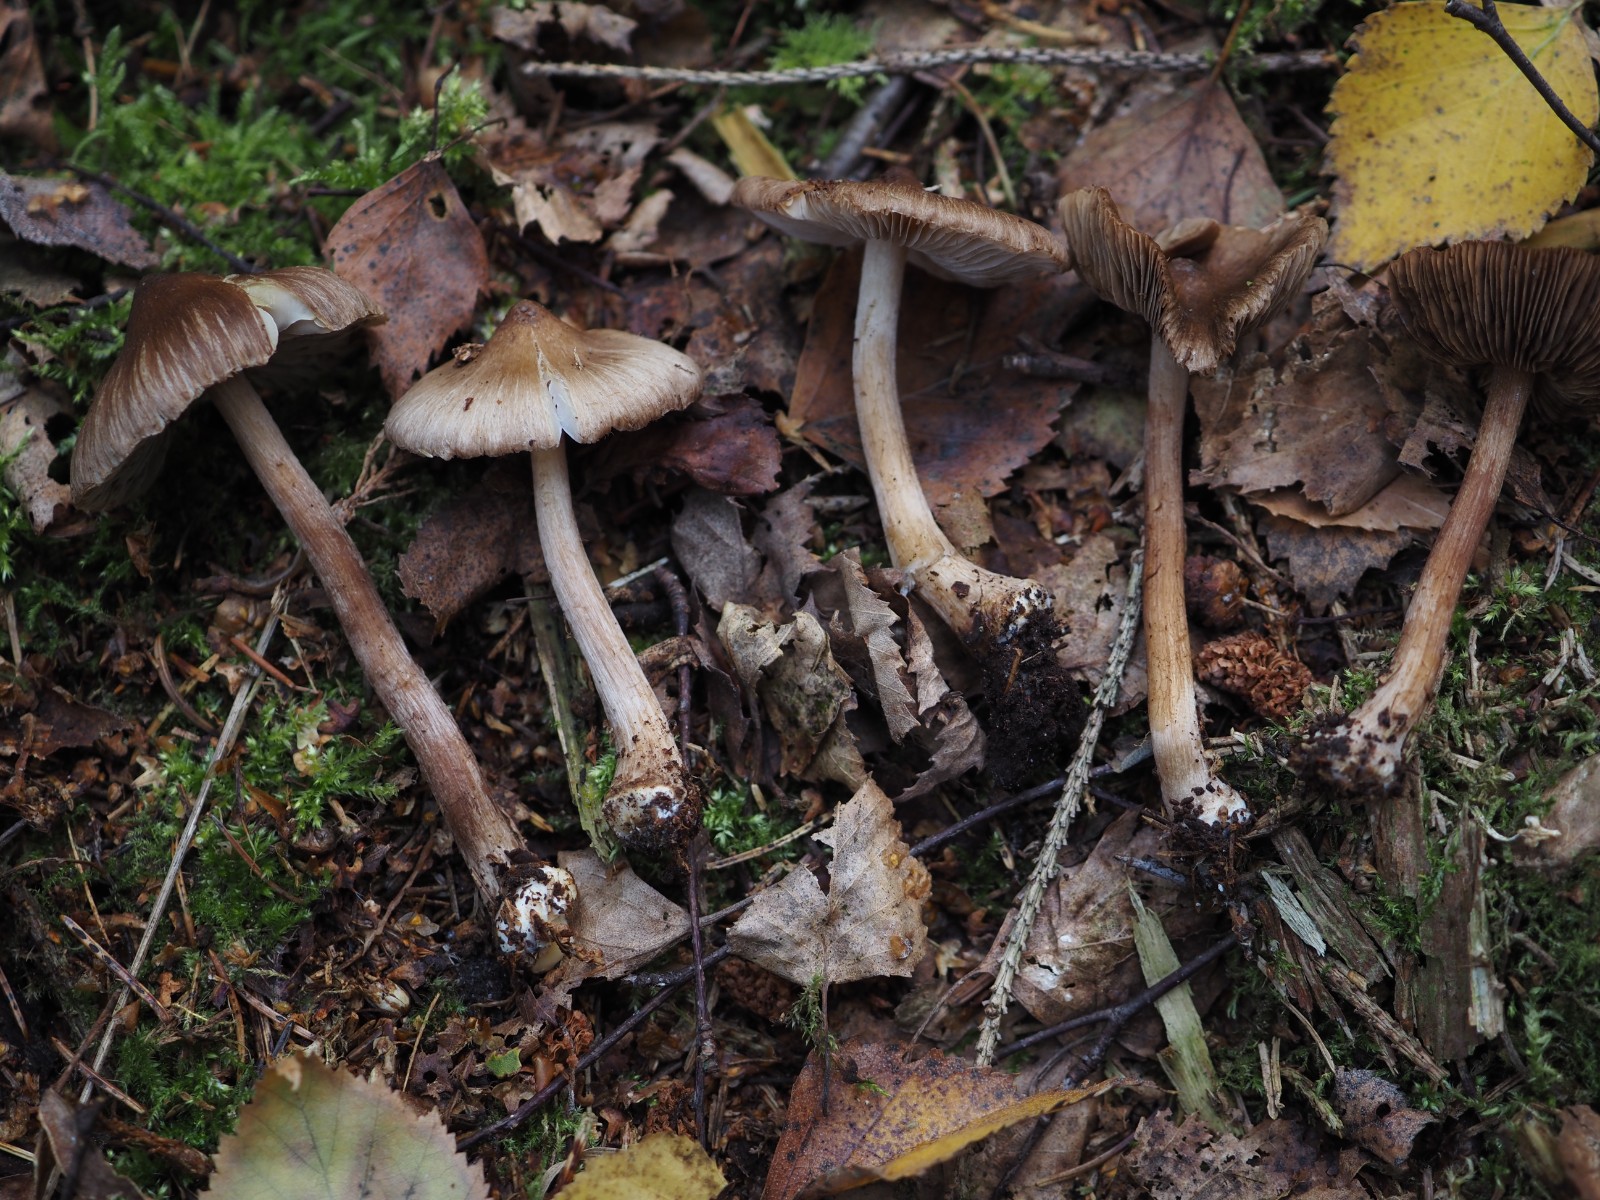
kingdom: Fungi
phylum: Basidiomycota
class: Agaricomycetes
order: Agaricales
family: Inocybaceae
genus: Inocybe
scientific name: Inocybe napipes
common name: roeknoldet trævlhat
